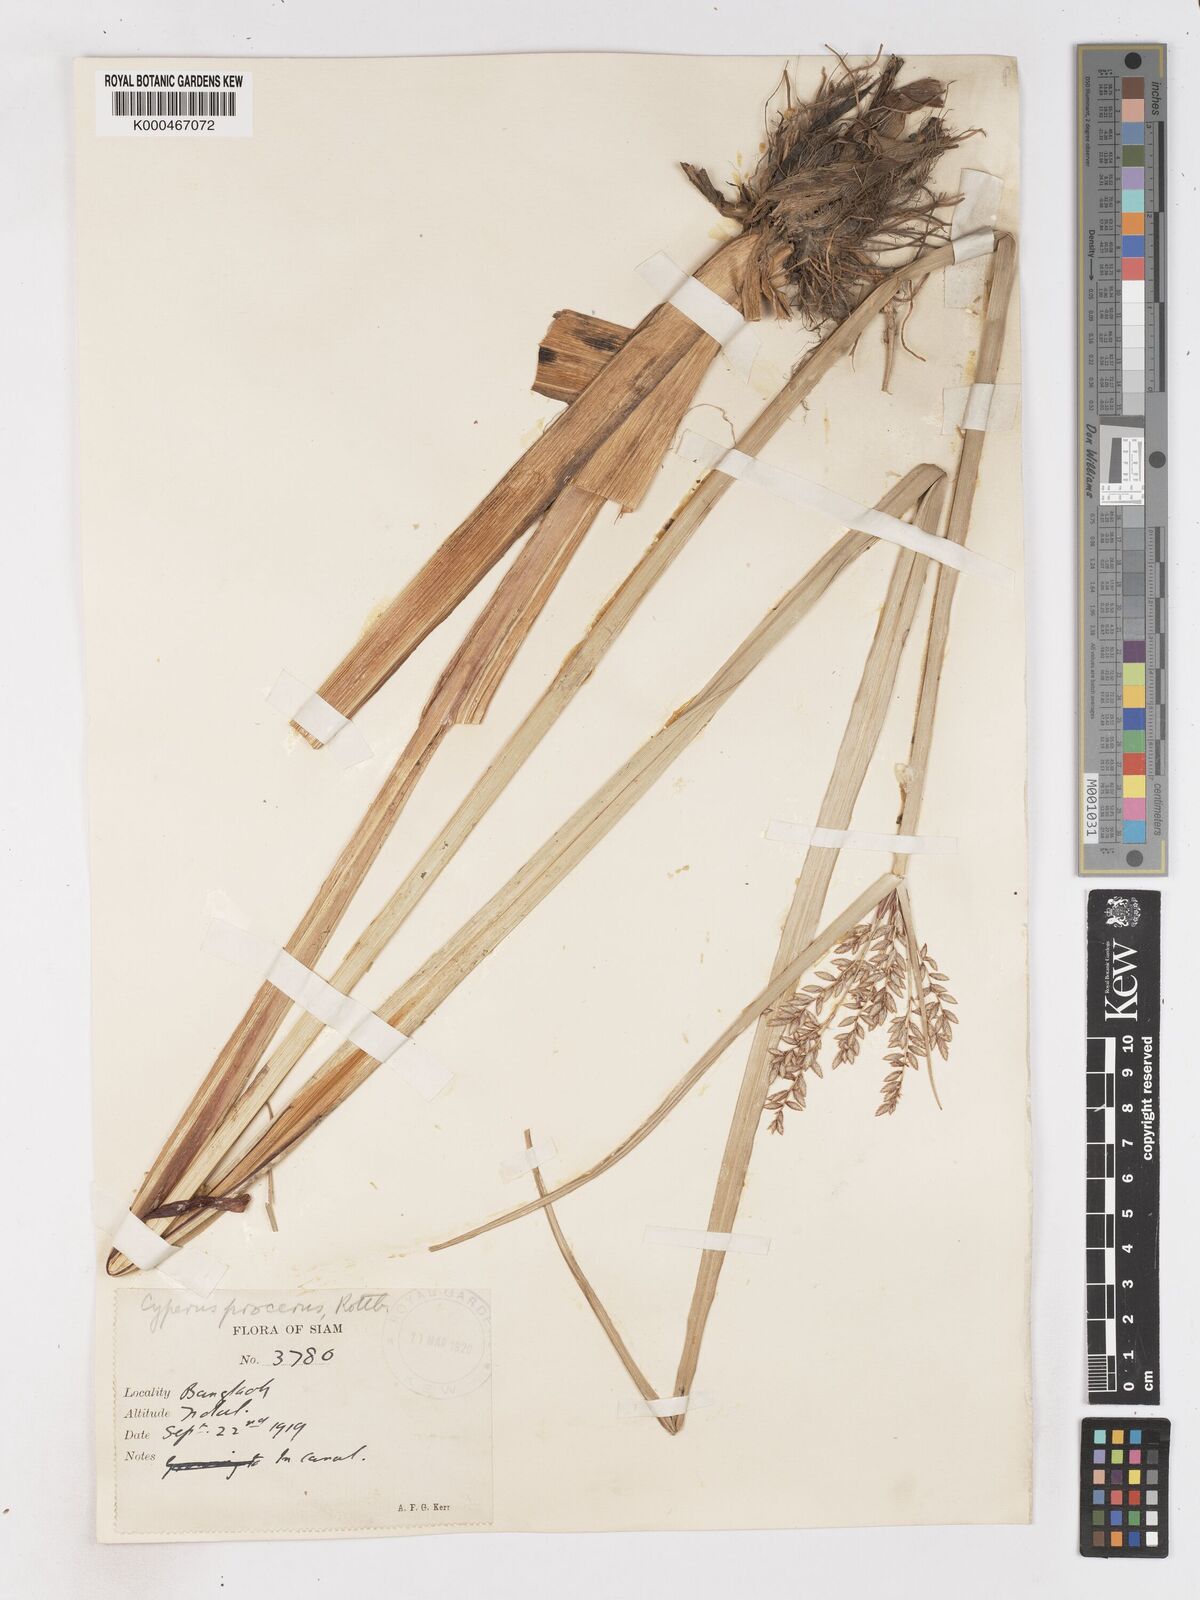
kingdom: Plantae
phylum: Tracheophyta
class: Liliopsida
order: Poales
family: Cyperaceae
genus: Cyperus
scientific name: Cyperus procerus
